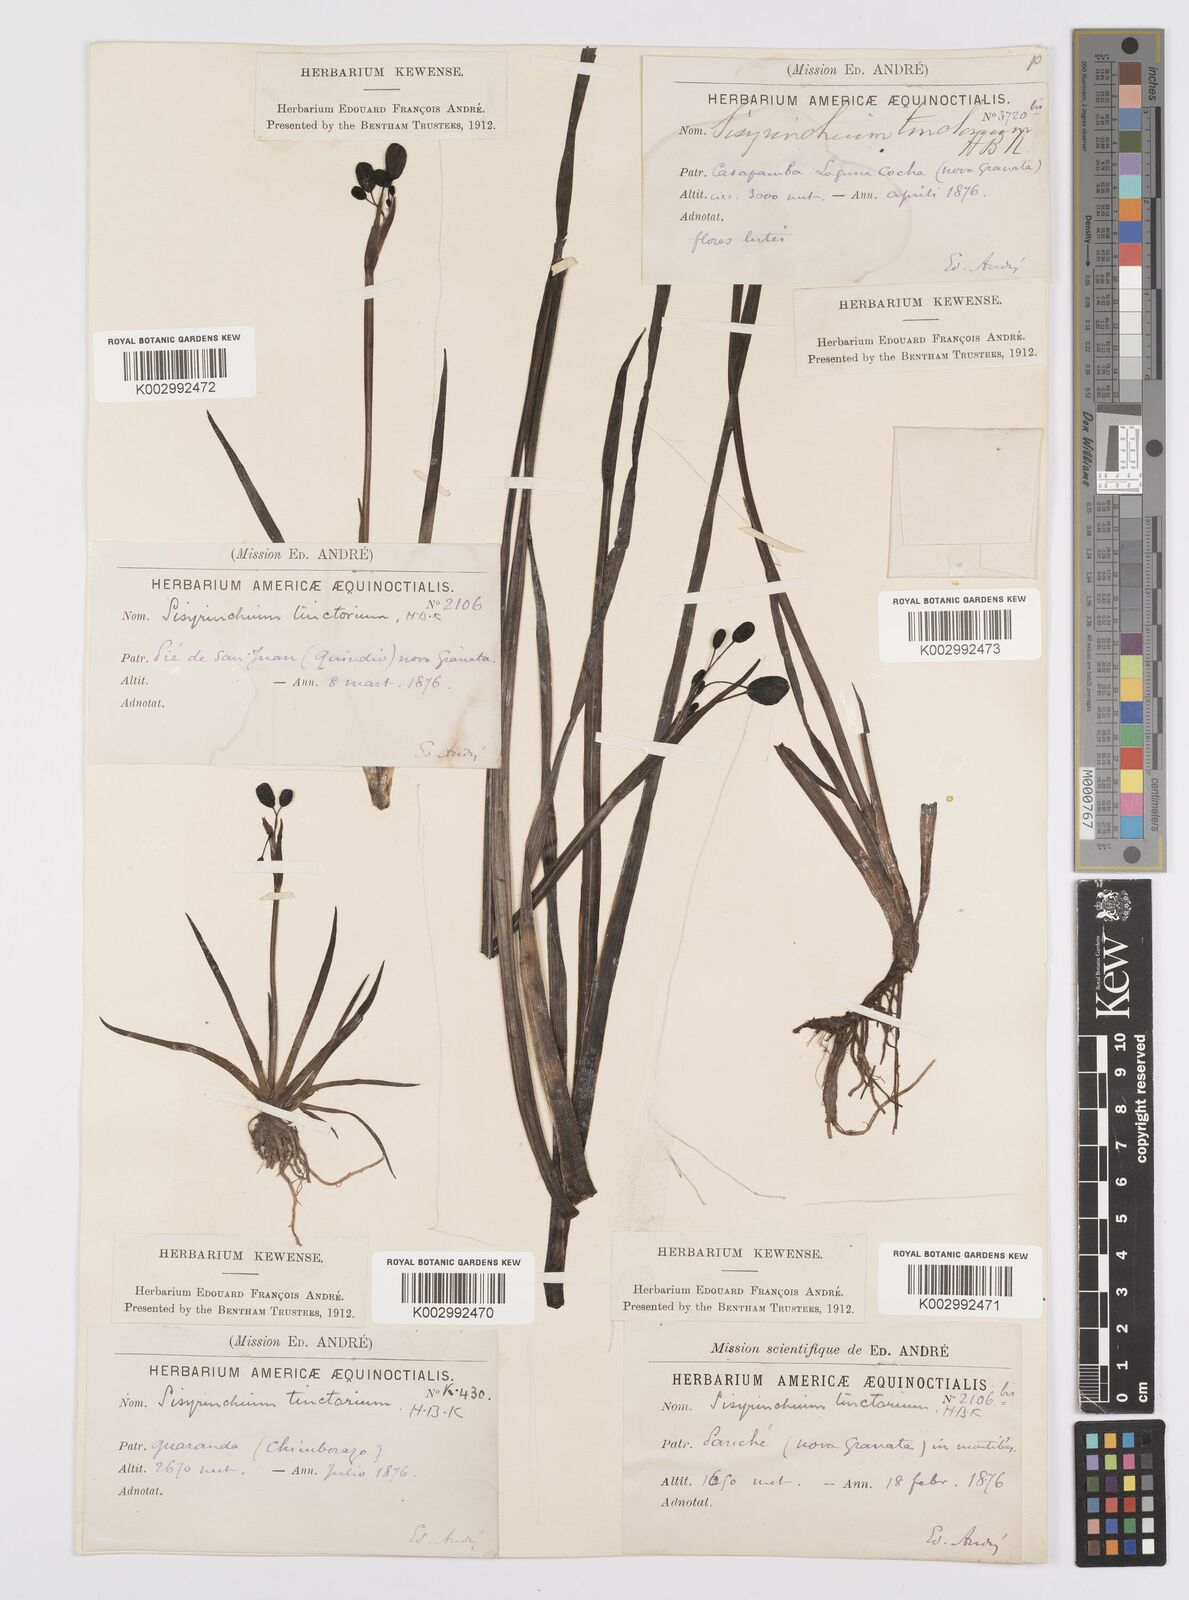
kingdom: Plantae
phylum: Tracheophyta
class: Liliopsida
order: Asparagales
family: Iridaceae
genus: Sisyrinchium
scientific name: Sisyrinchium tinctorium
